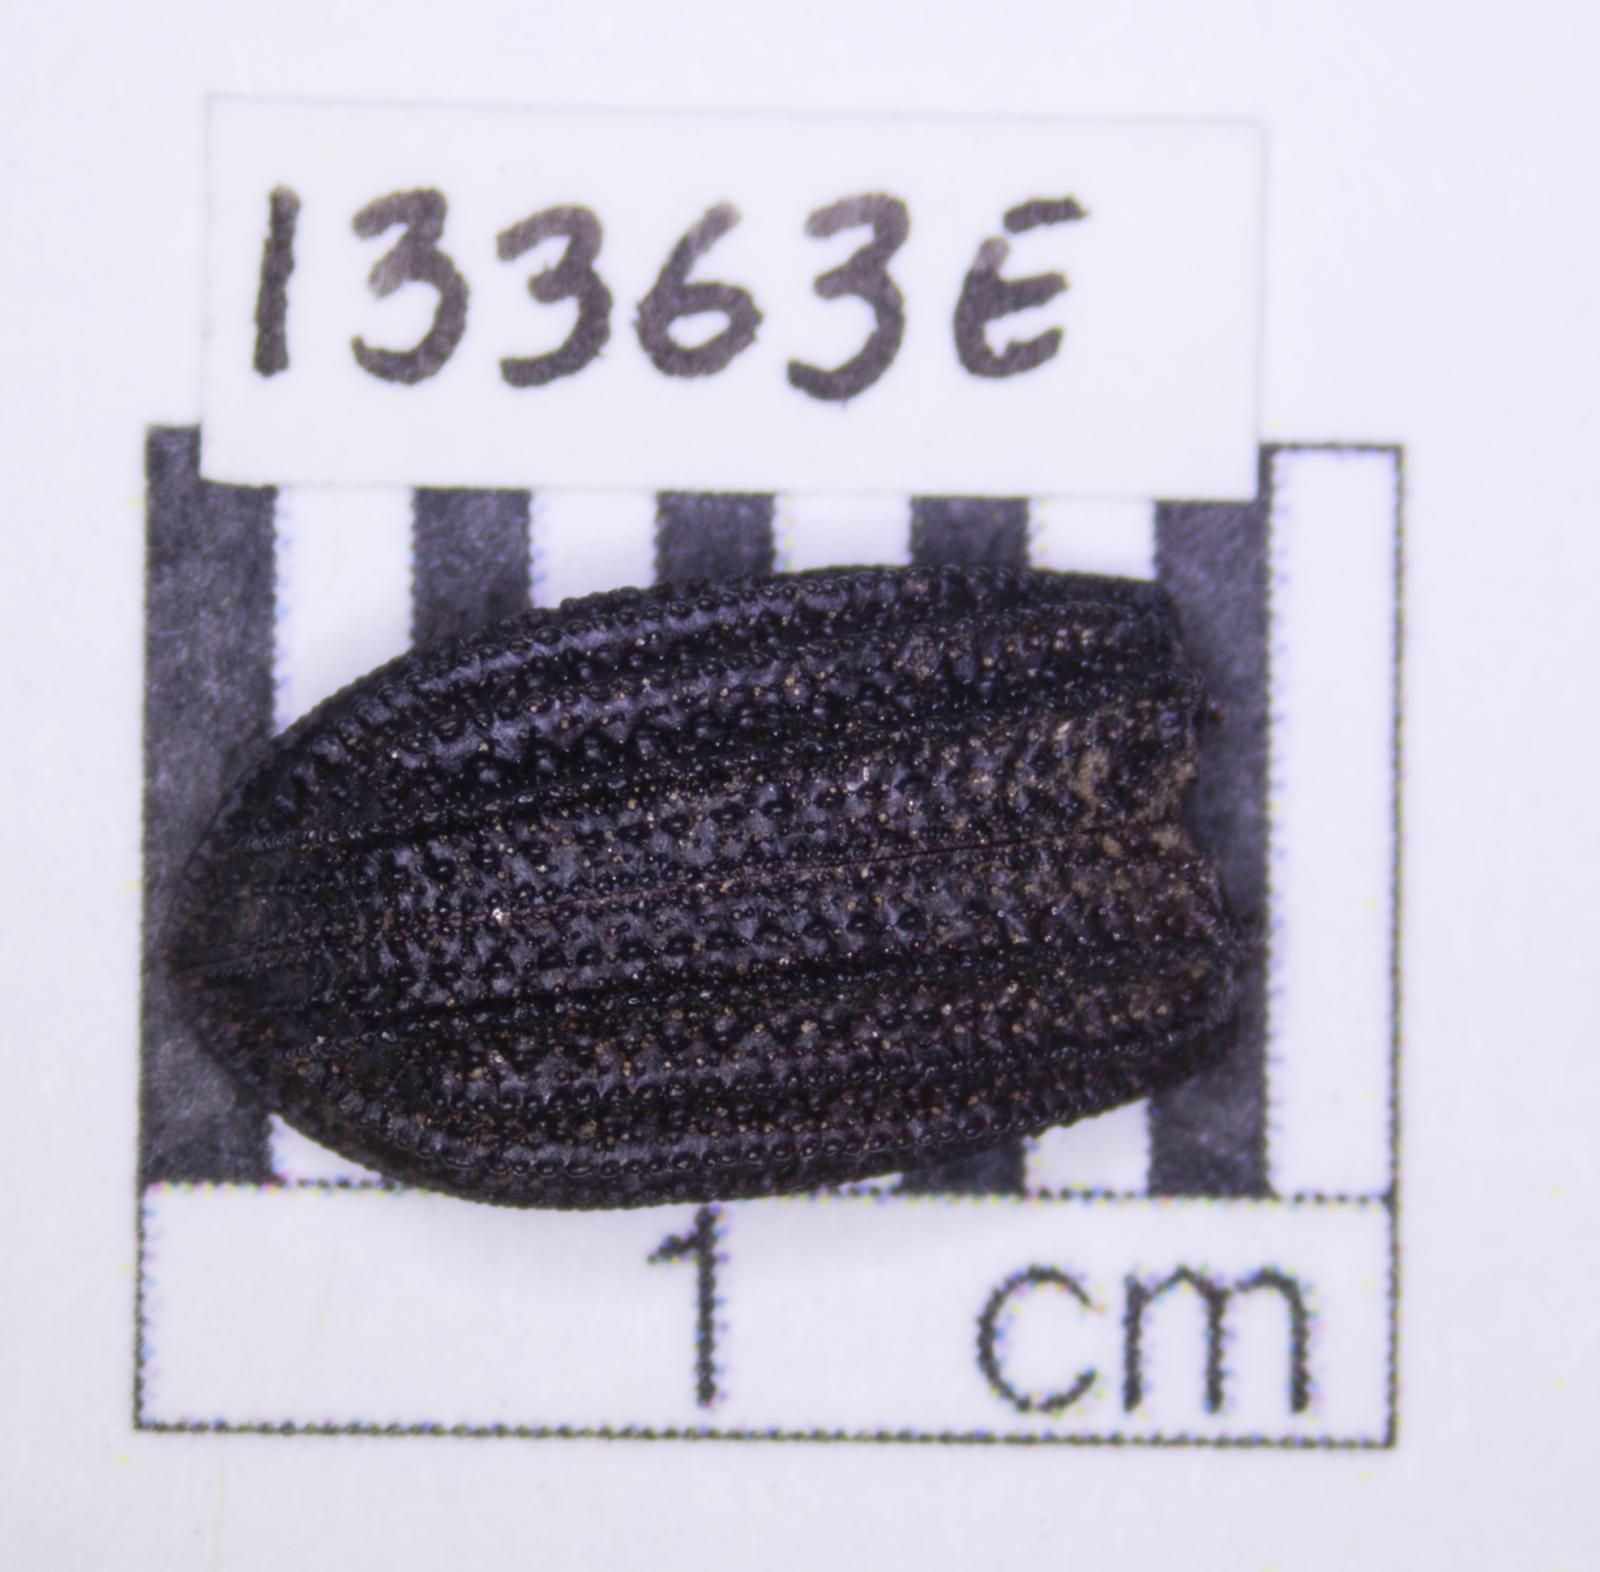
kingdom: Animalia
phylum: Arthropoda
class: Insecta
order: Coleoptera
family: Tenebrionidae
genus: Nyctoporis
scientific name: Nyctoporis carinata
